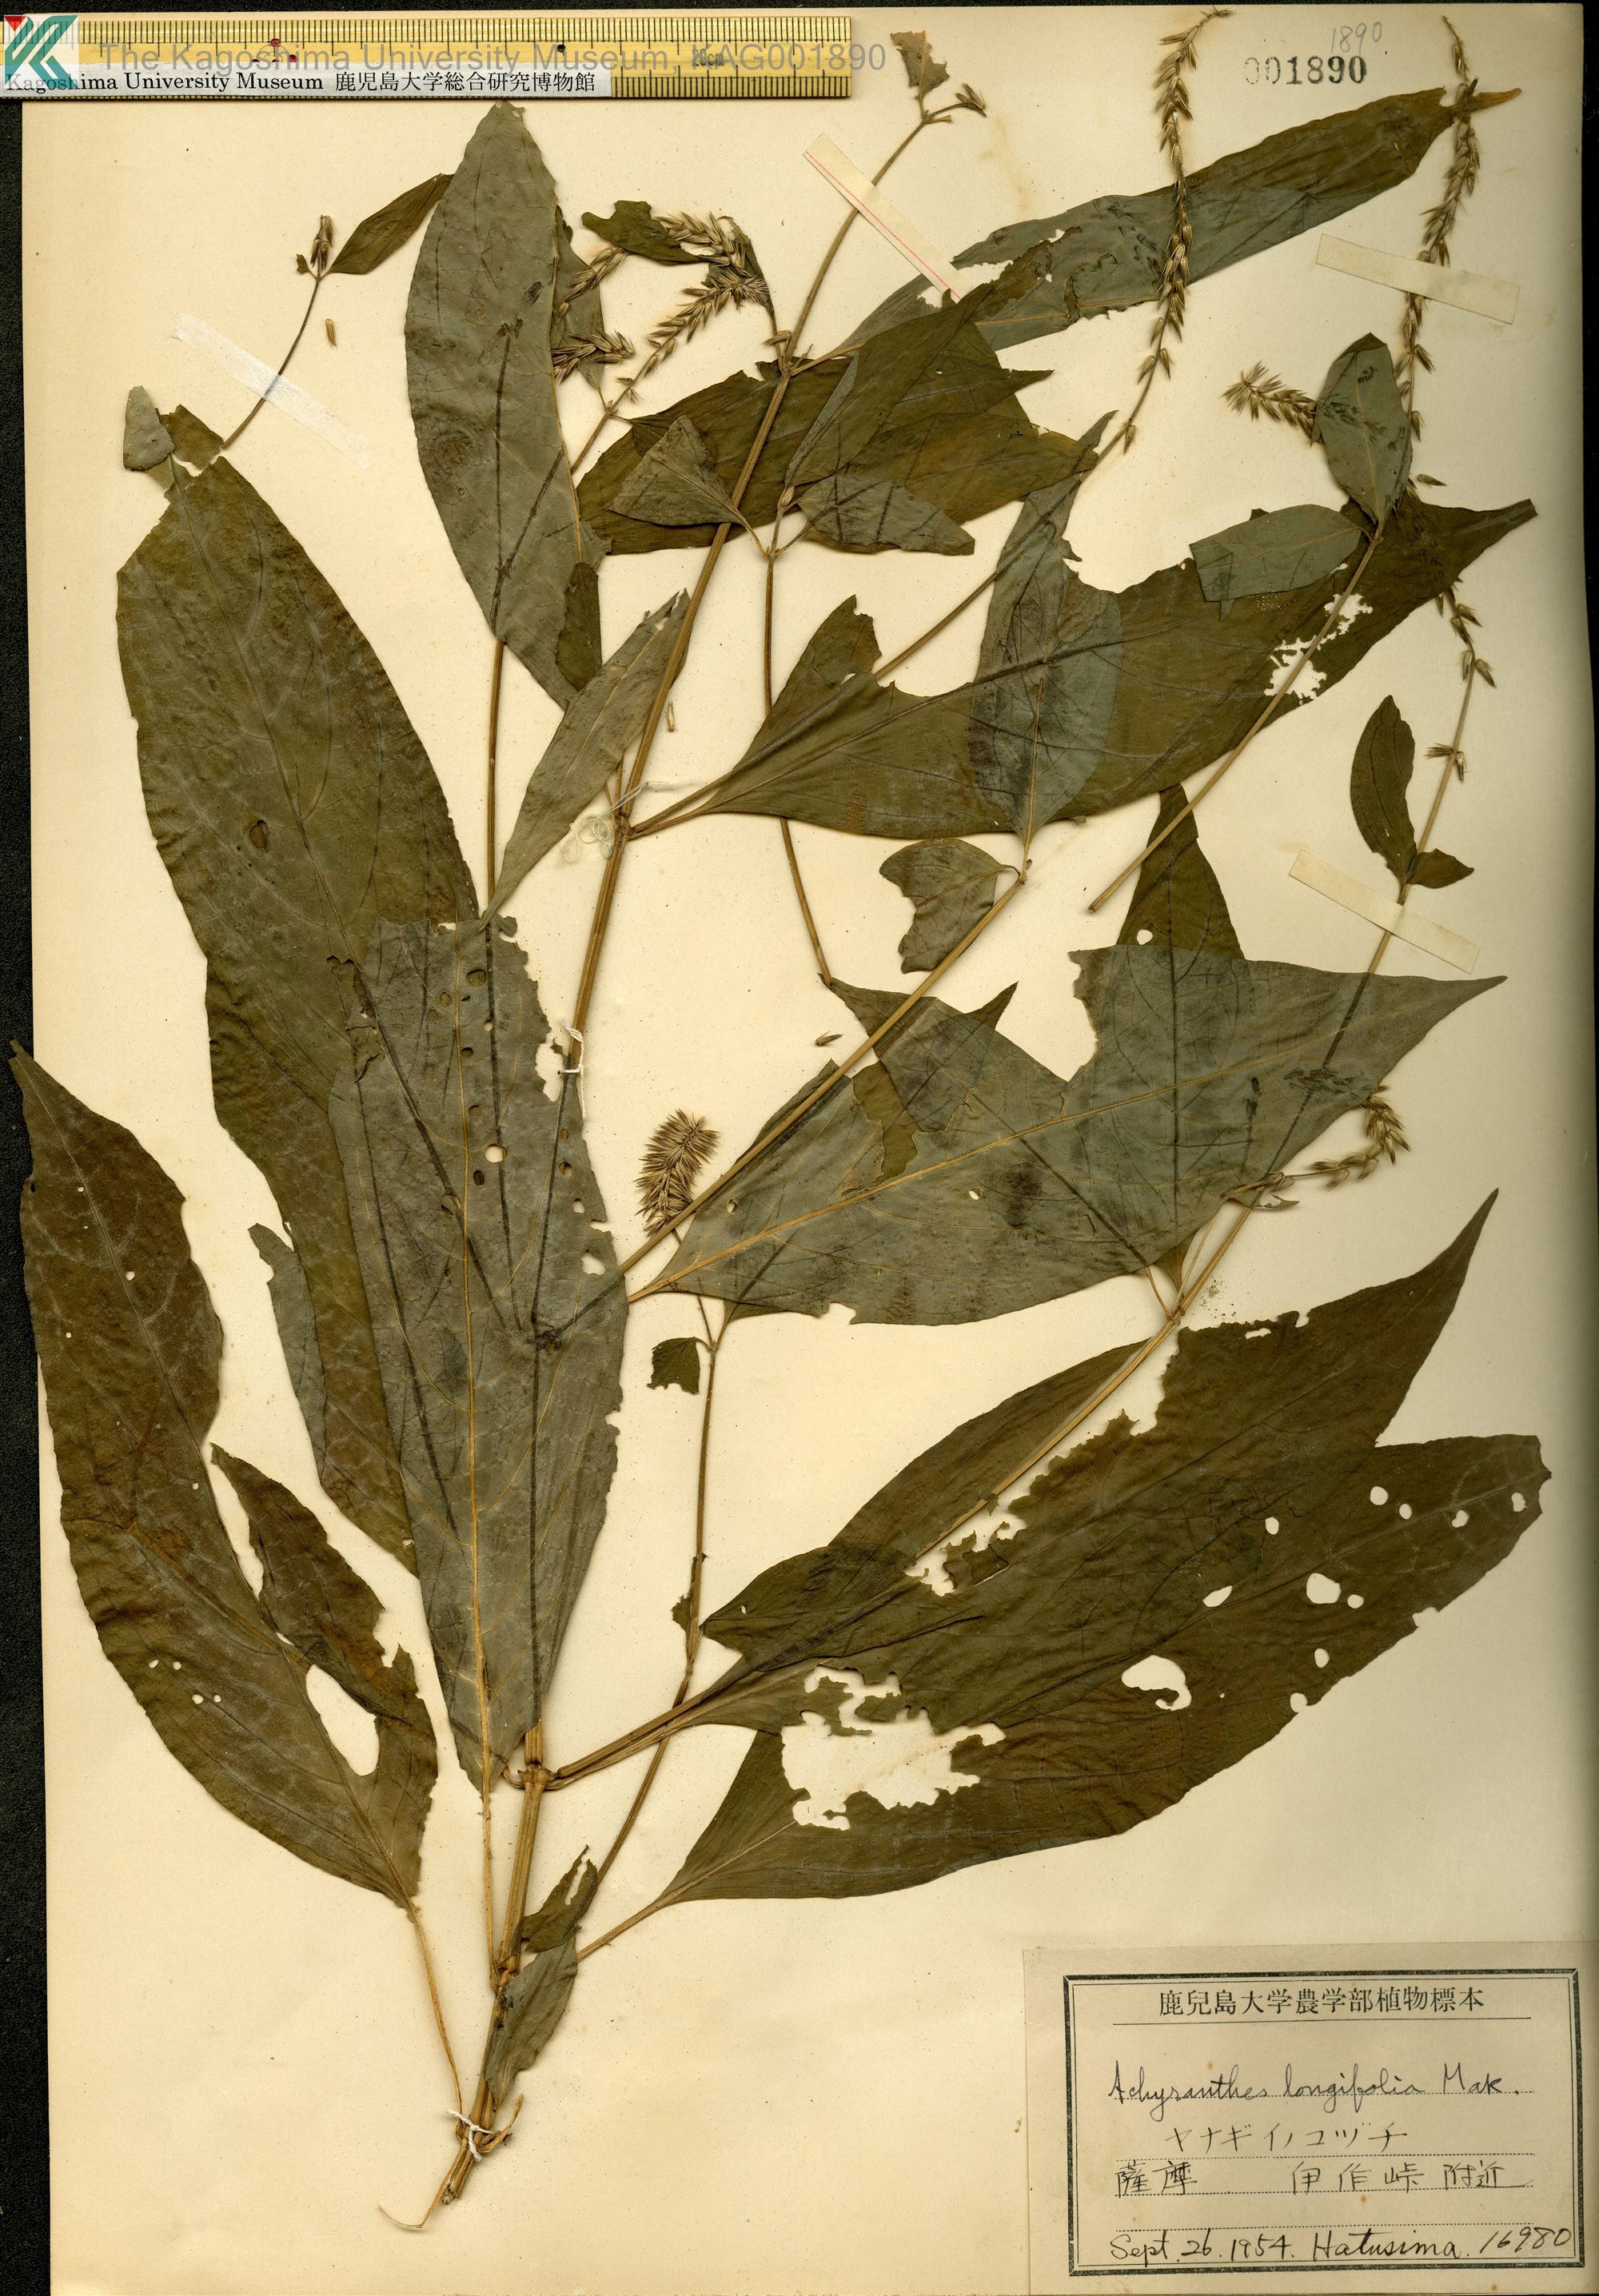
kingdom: Plantae
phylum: Tracheophyta
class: Magnoliopsida
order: Caryophyllales
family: Amaranthaceae
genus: Achyranthes
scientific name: Achyranthes bidentata
